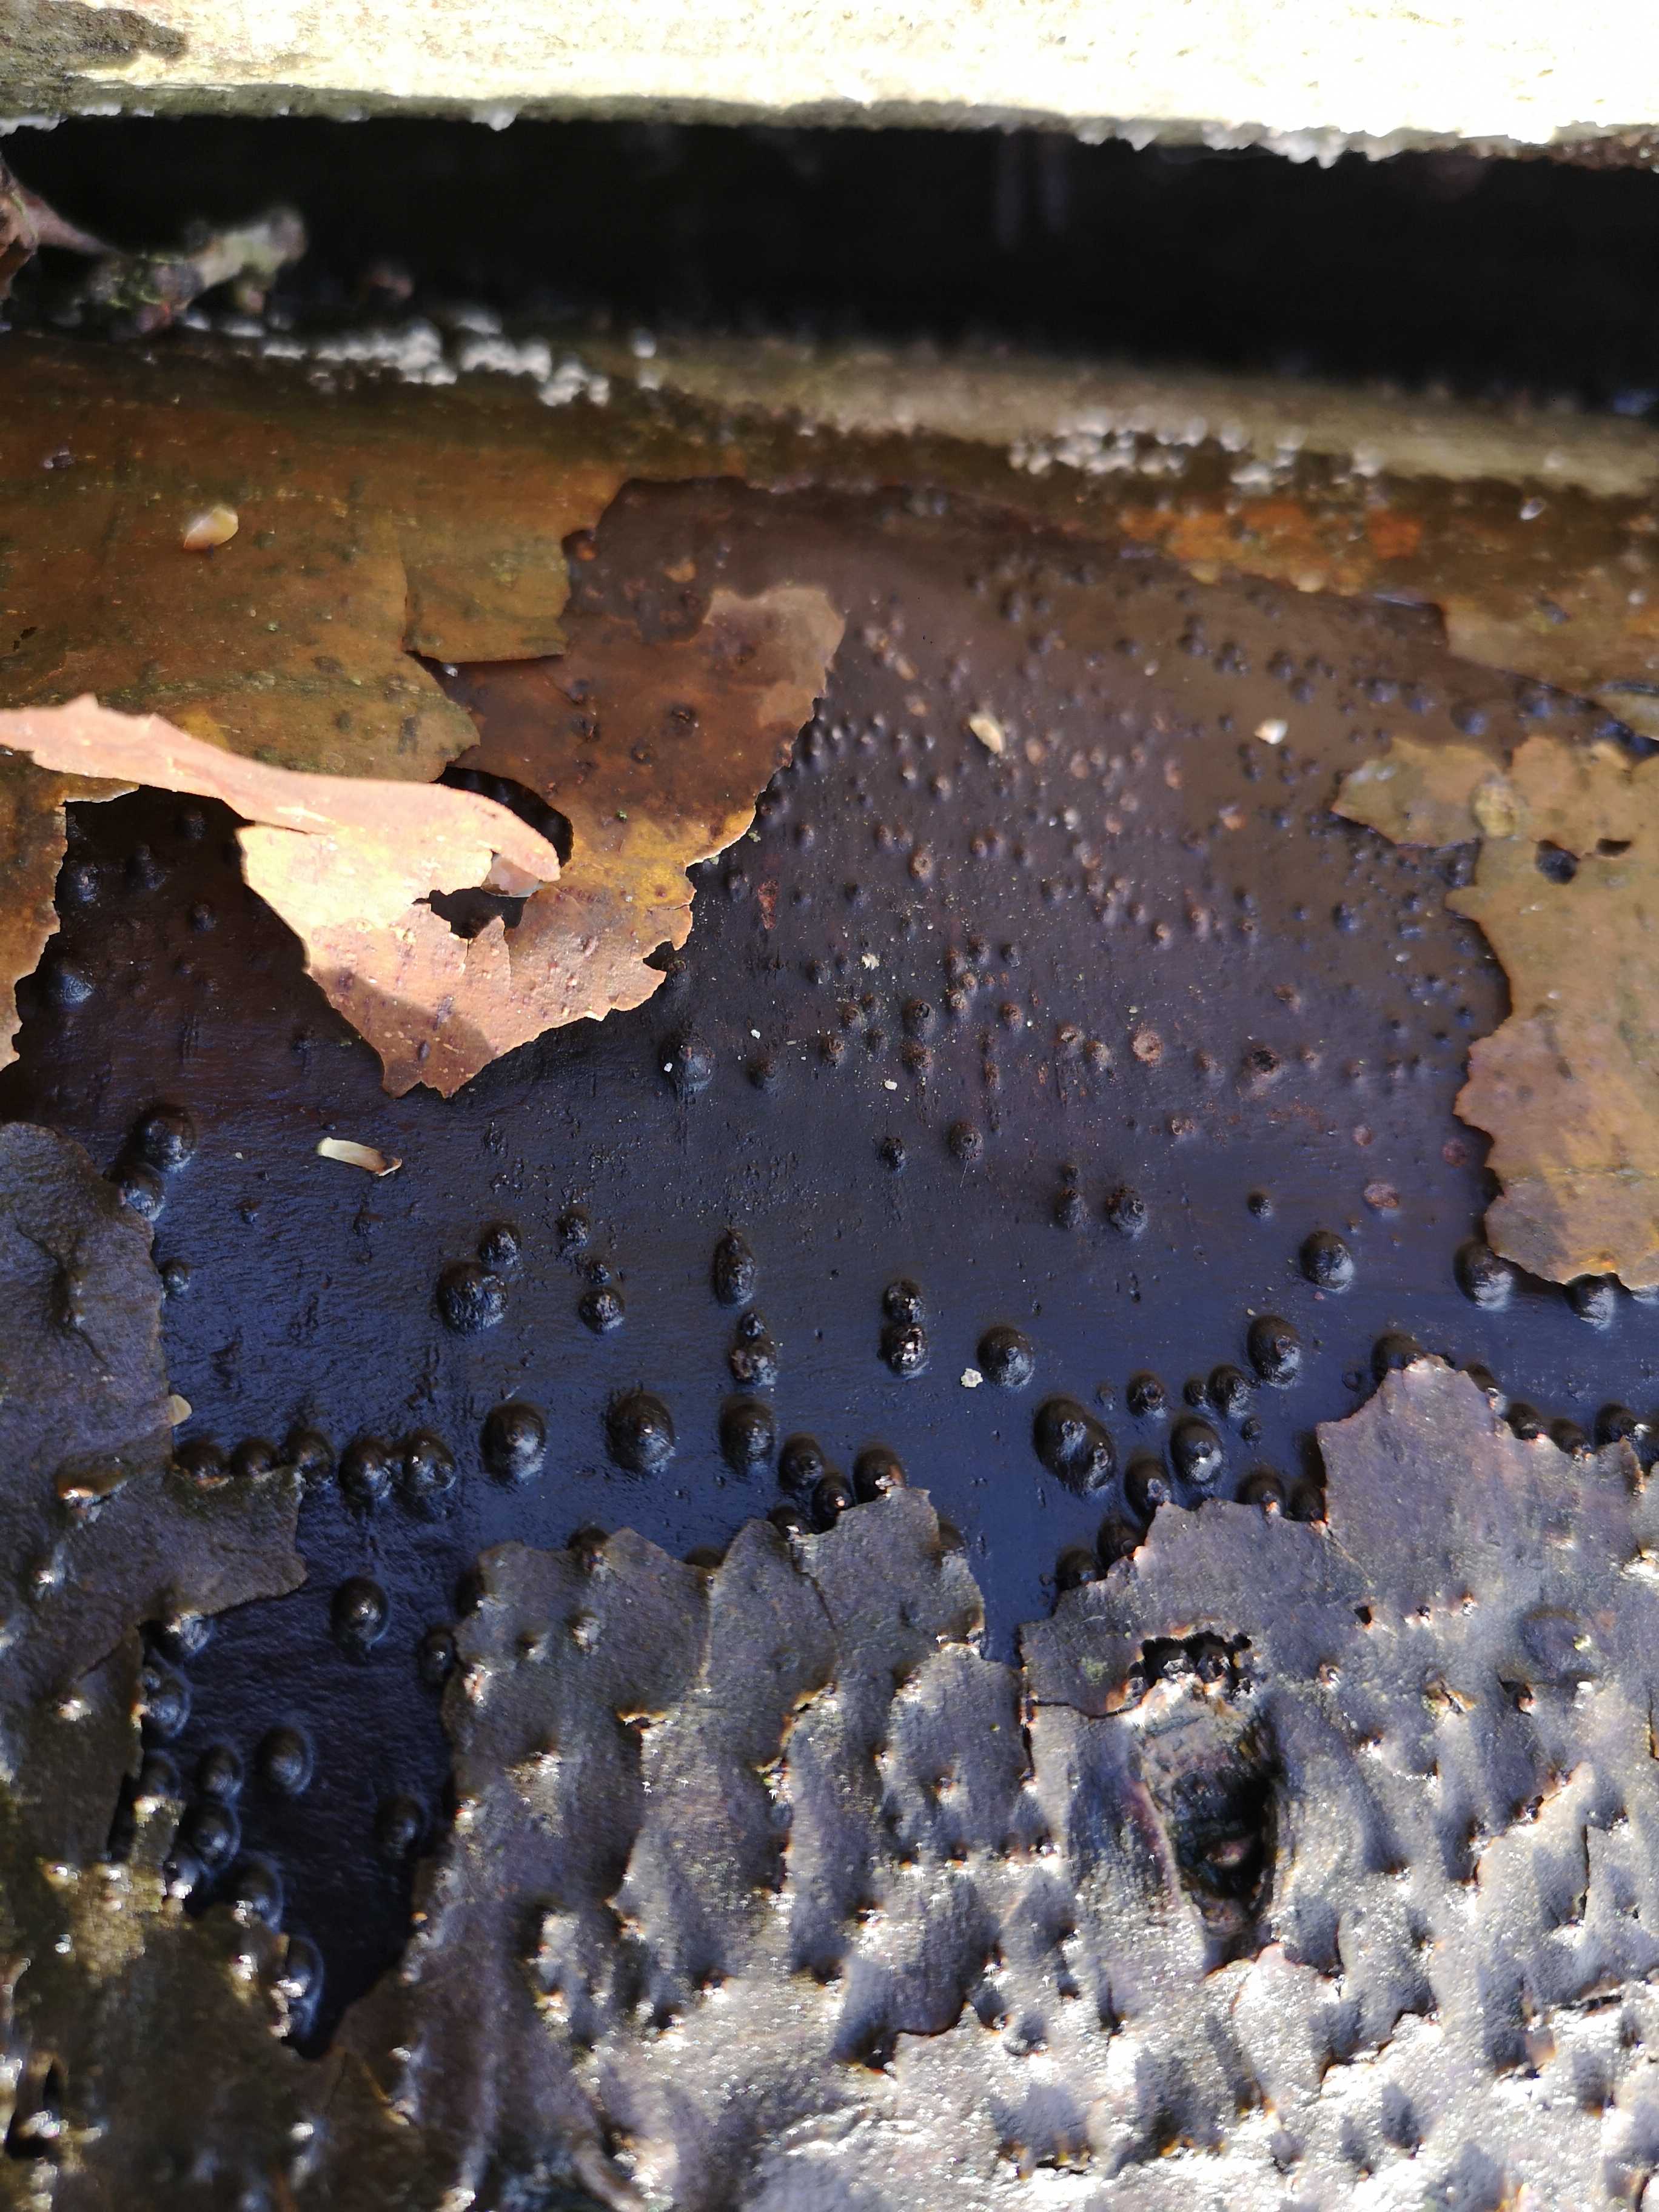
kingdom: Fungi
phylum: Ascomycota
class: Leotiomycetes
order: Phacidiales
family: Phacidiaceae
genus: Bulgaria
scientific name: Bulgaria inquinans
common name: afsmittende topsvamp
